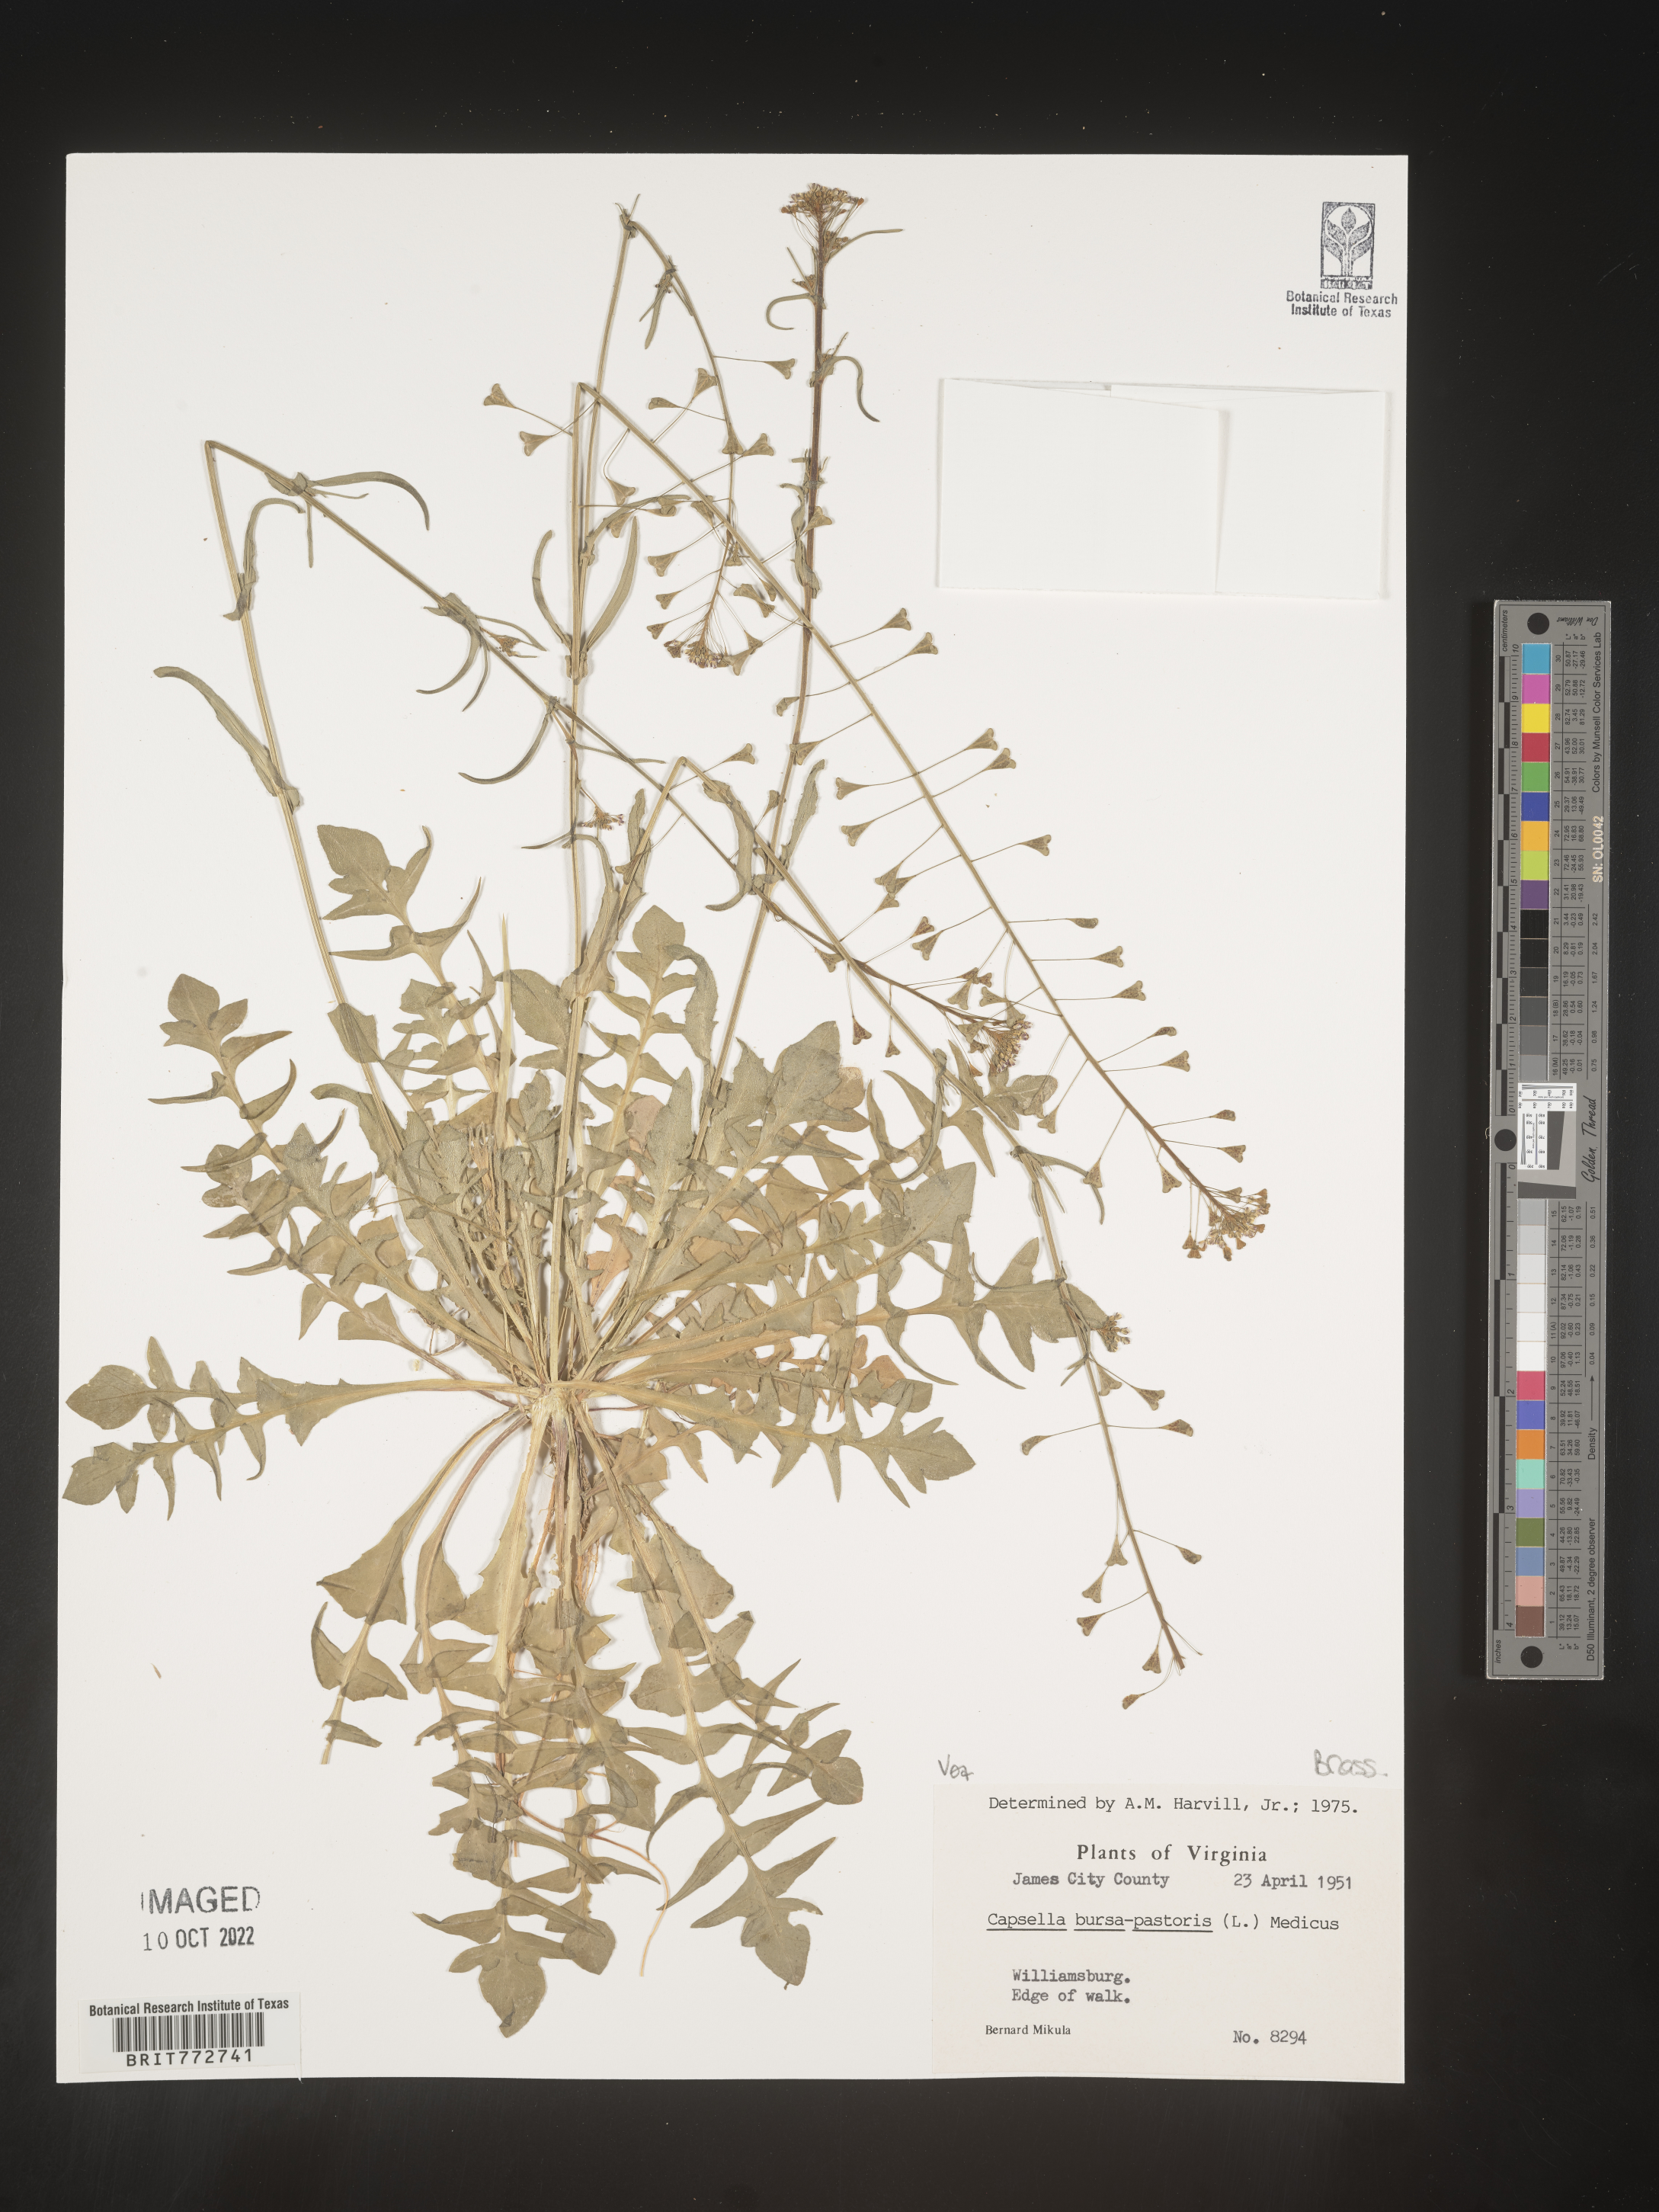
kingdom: Plantae
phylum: Tracheophyta
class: Magnoliopsida
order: Brassicales
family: Brassicaceae
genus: Capsella
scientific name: Capsella bursa-pastoris
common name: Shepherd's purse
